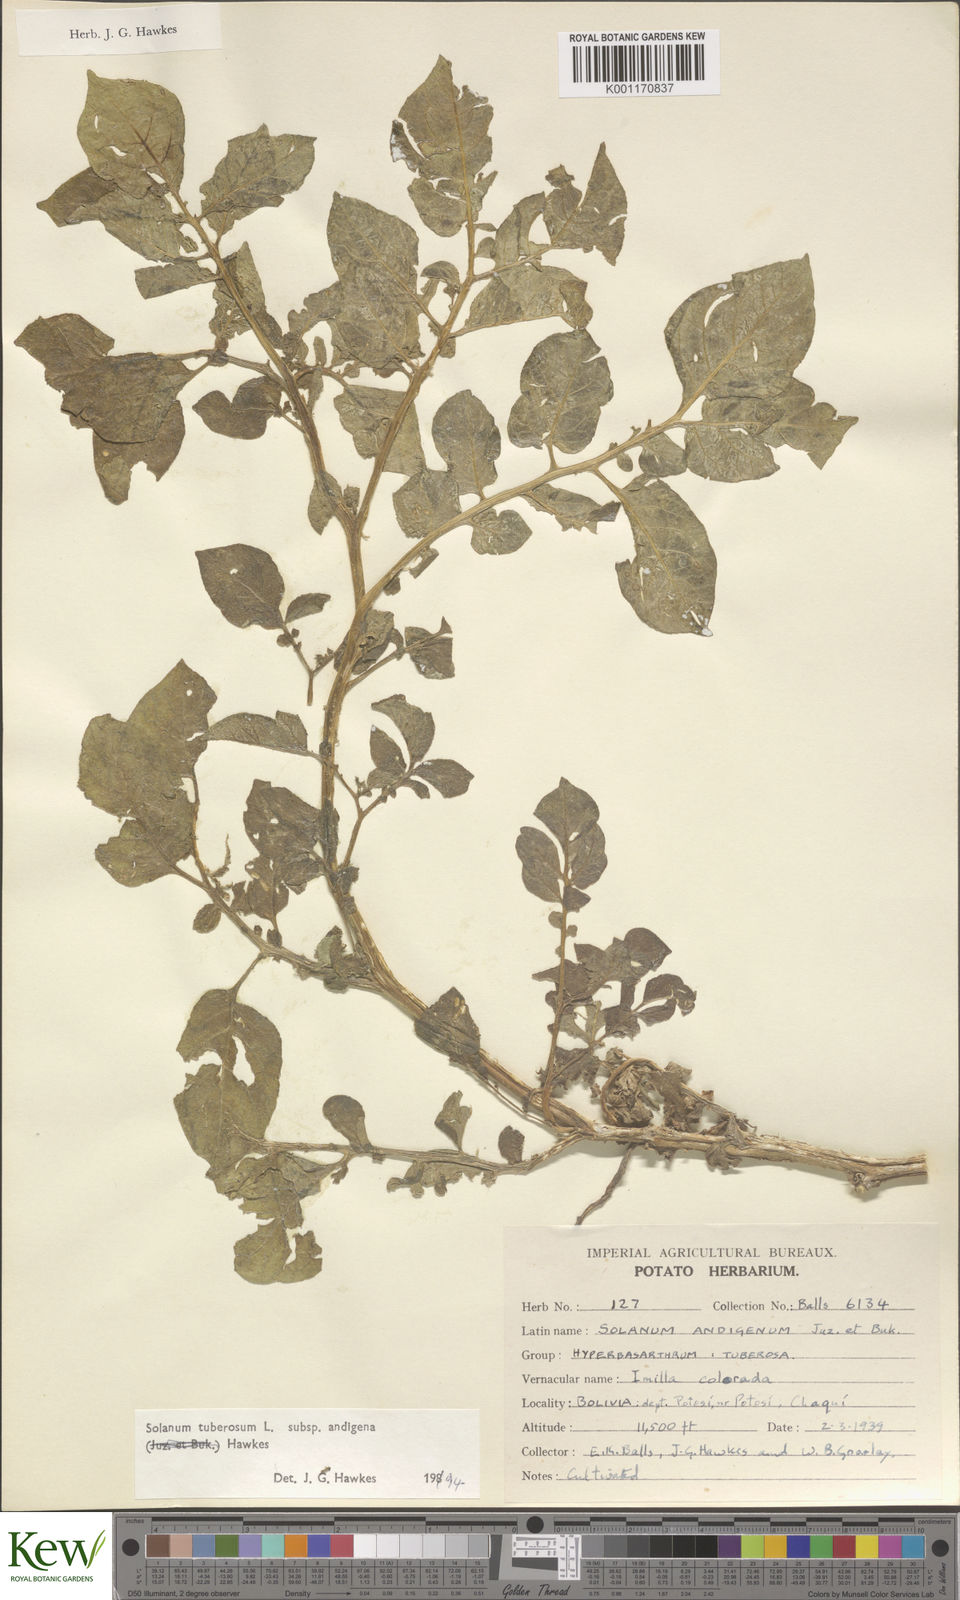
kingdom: Plantae
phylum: Tracheophyta
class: Magnoliopsida
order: Solanales
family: Solanaceae
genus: Solanum
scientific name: Solanum tuberosum
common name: Potato
